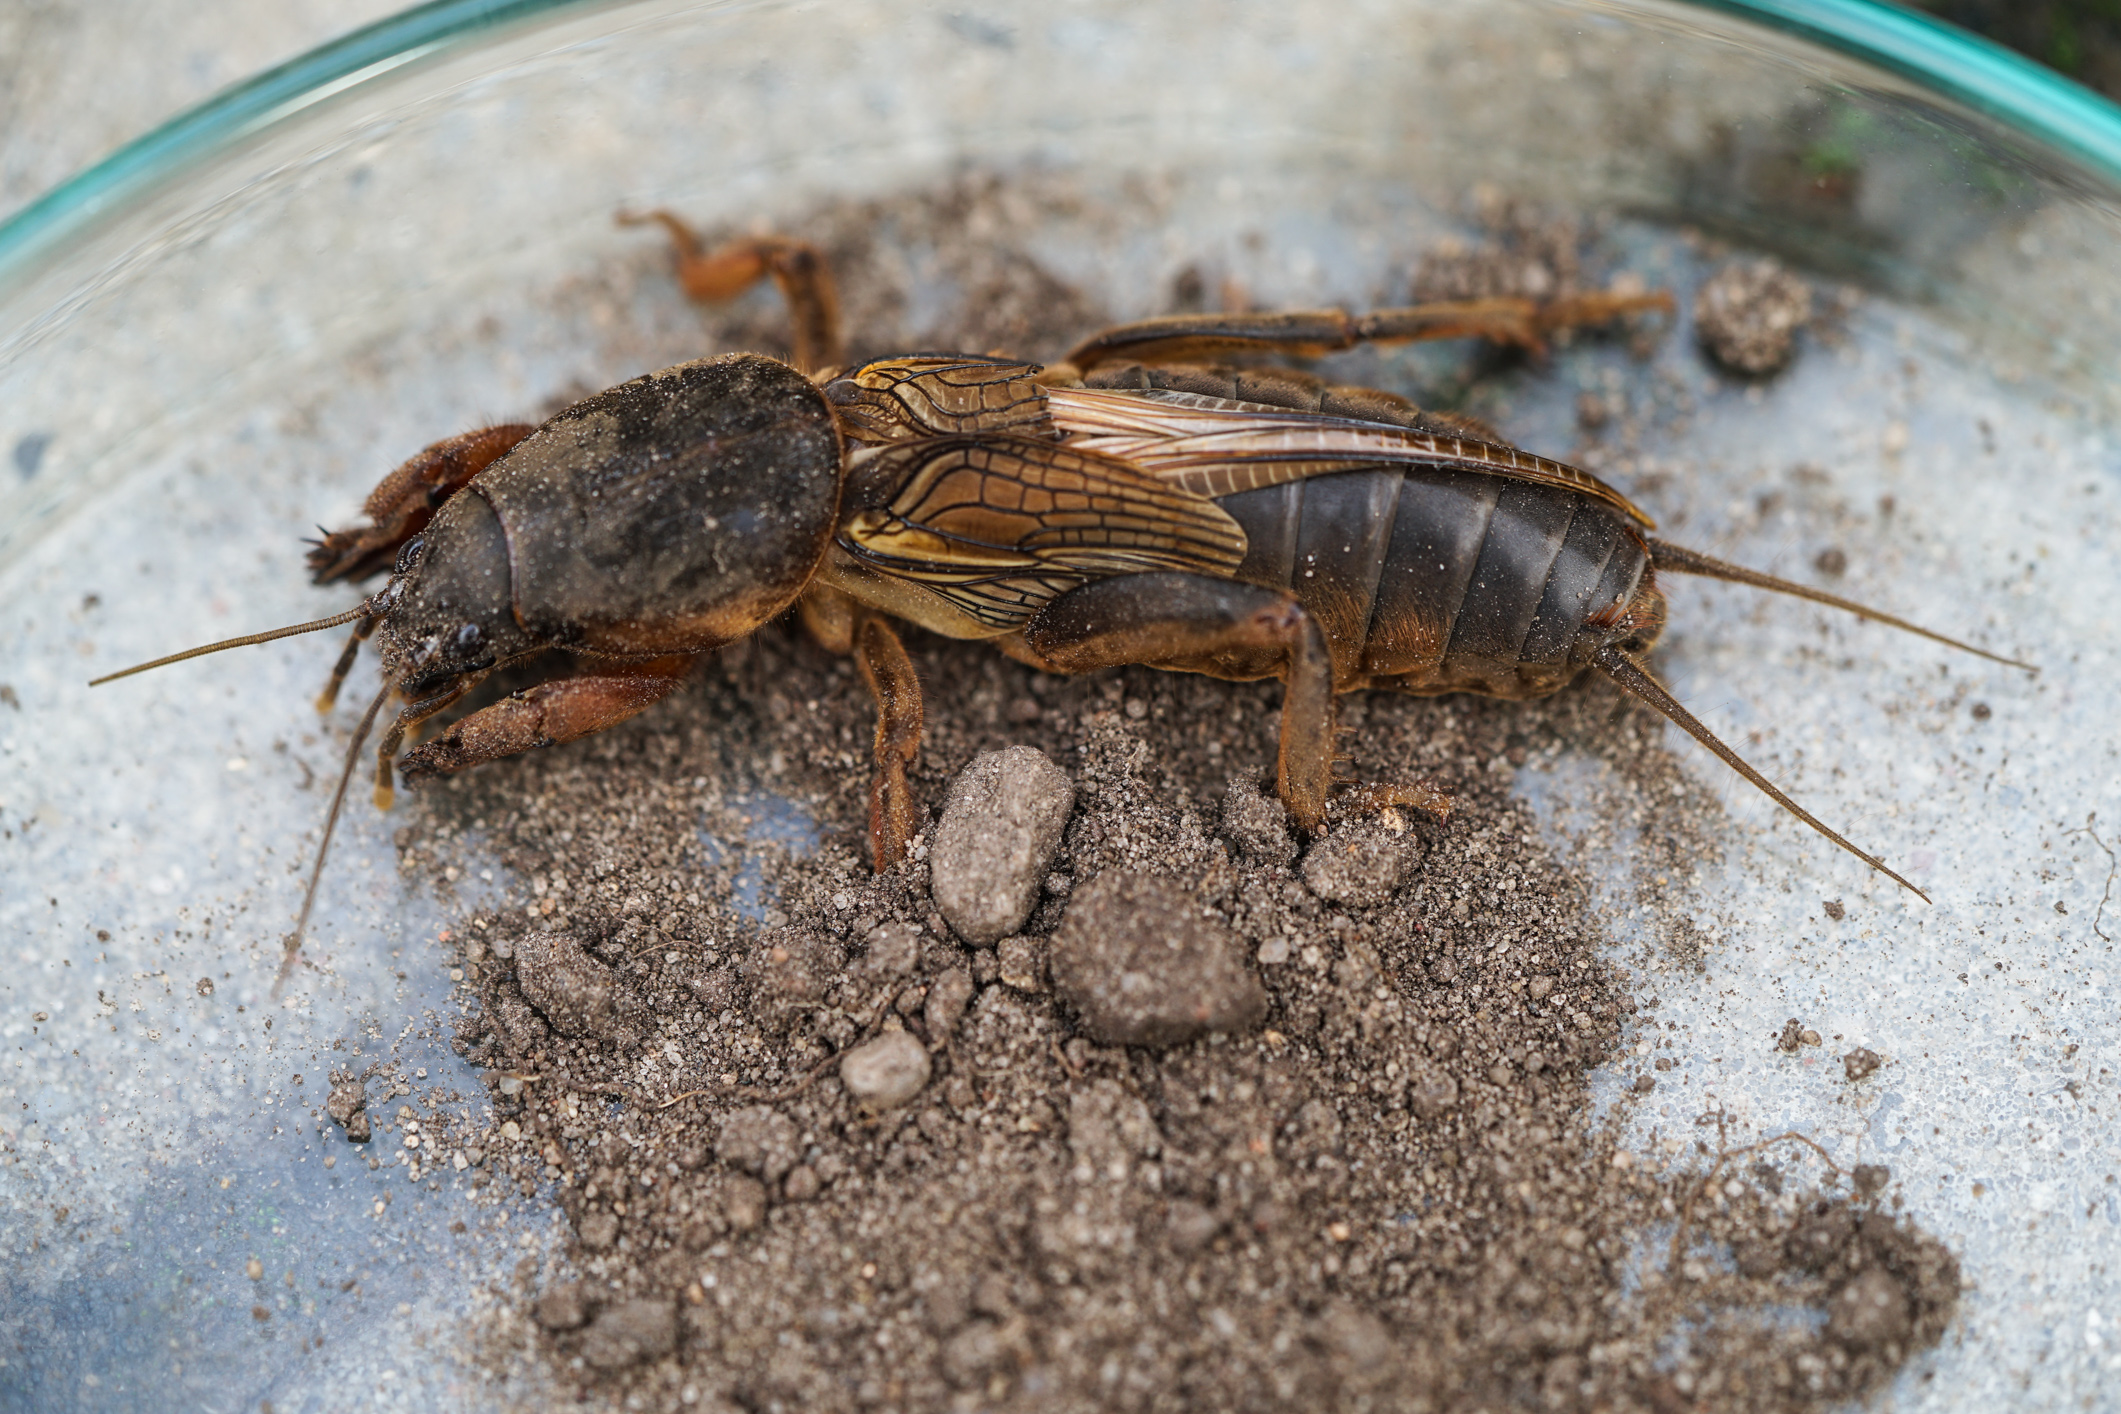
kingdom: Animalia
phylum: Arthropoda
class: Insecta
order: Orthoptera
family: Gryllotalpidae
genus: Gryllotalpa
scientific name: Gryllotalpa gryllotalpa
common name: European mole cricket
